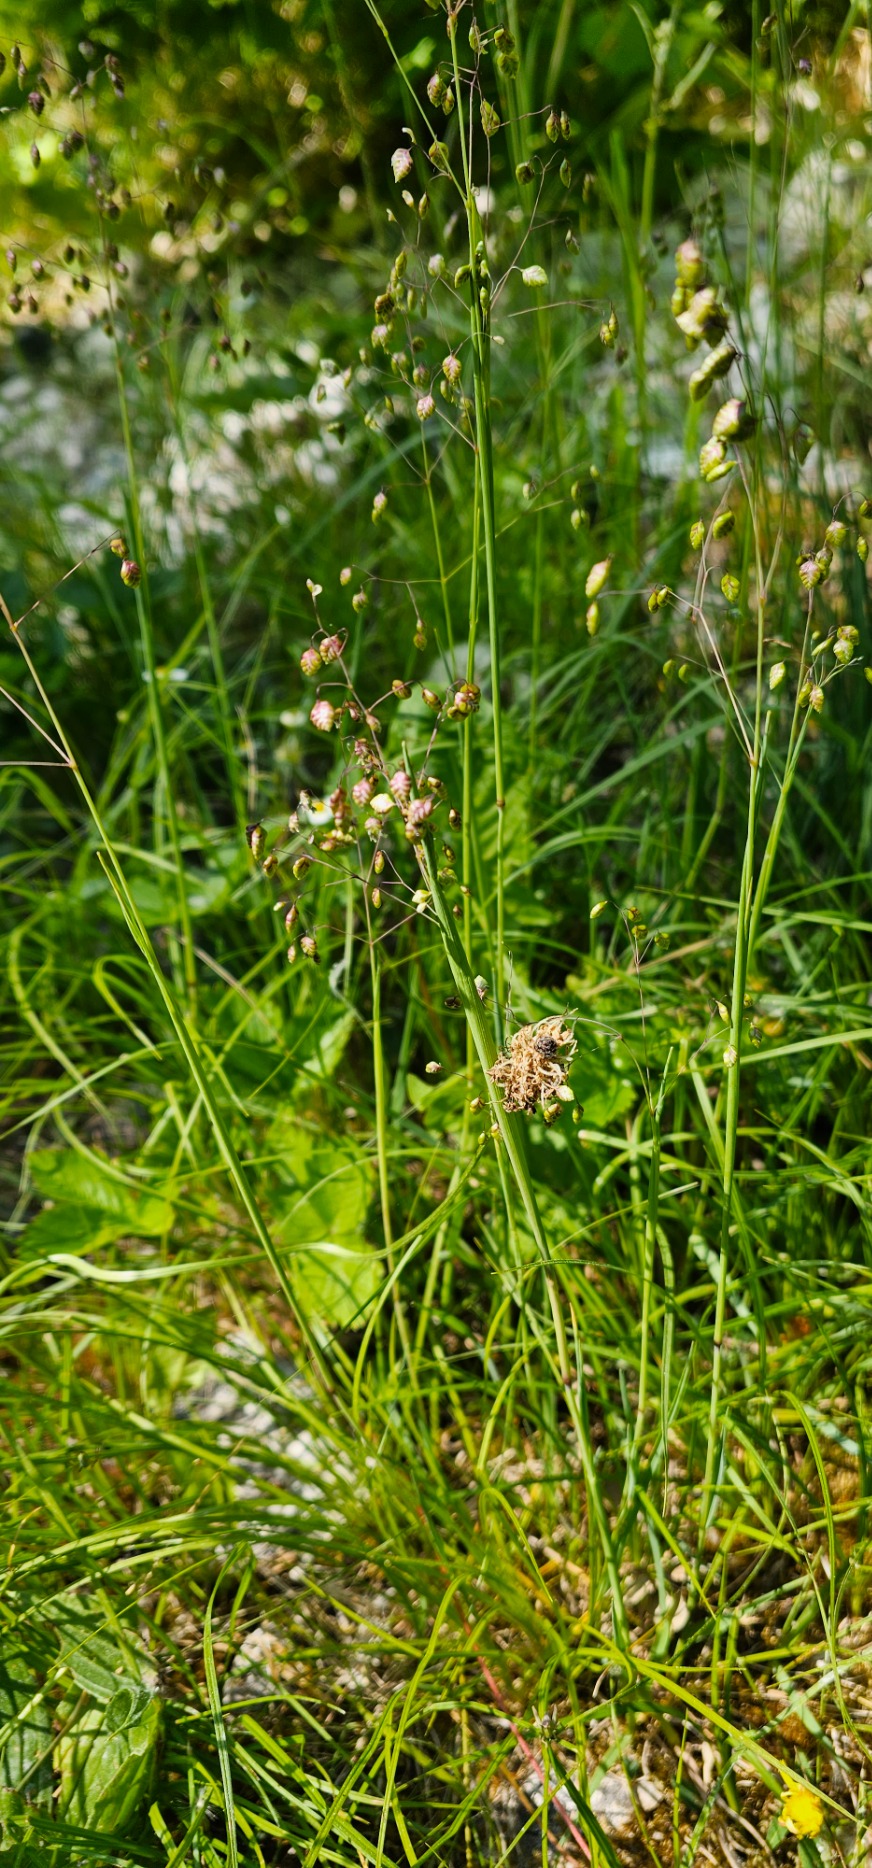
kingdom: Plantae
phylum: Tracheophyta
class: Liliopsida
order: Poales
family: Poaceae
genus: Briza
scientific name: Briza media
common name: Hjertegræs
